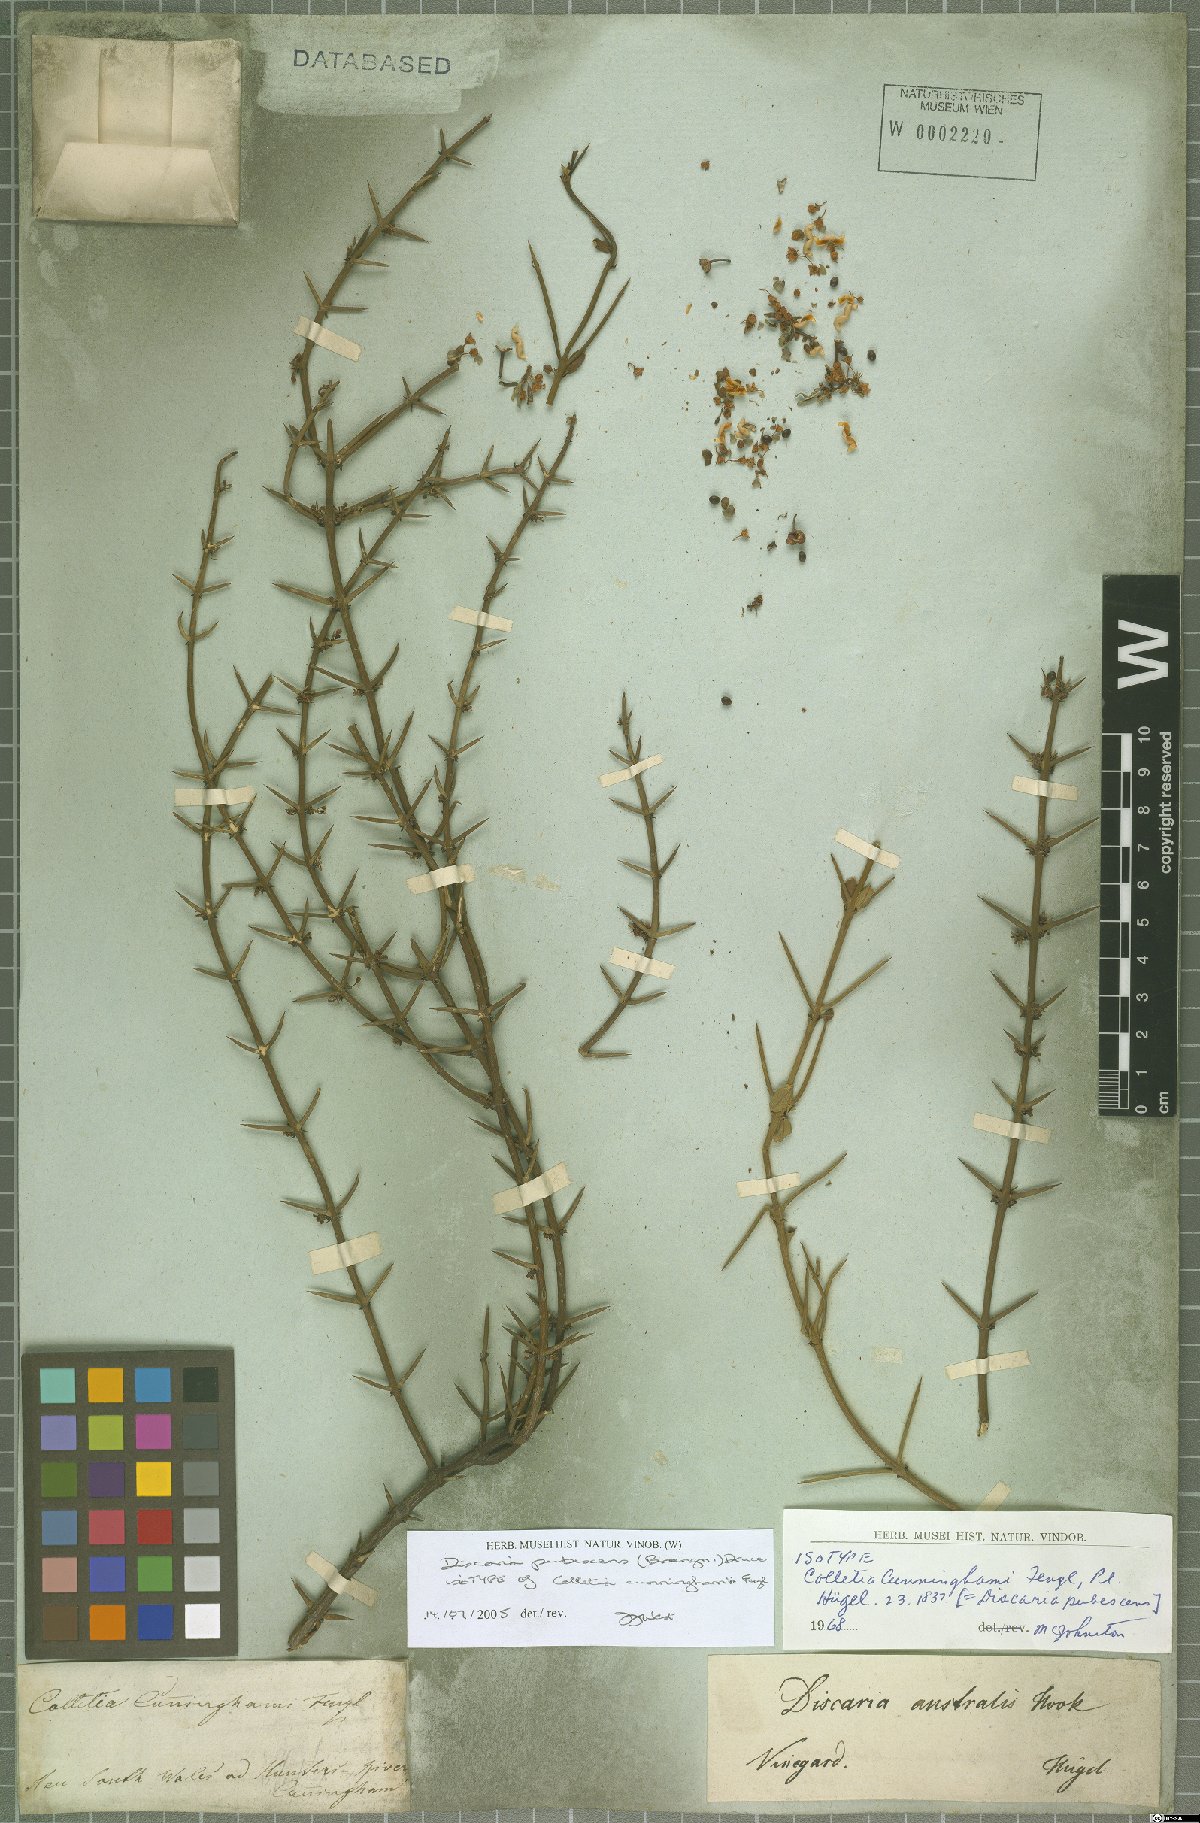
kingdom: Plantae
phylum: Tracheophyta
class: Magnoliopsida
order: Rosales
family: Rhamnaceae
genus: Discaria
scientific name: Discaria pubescens
